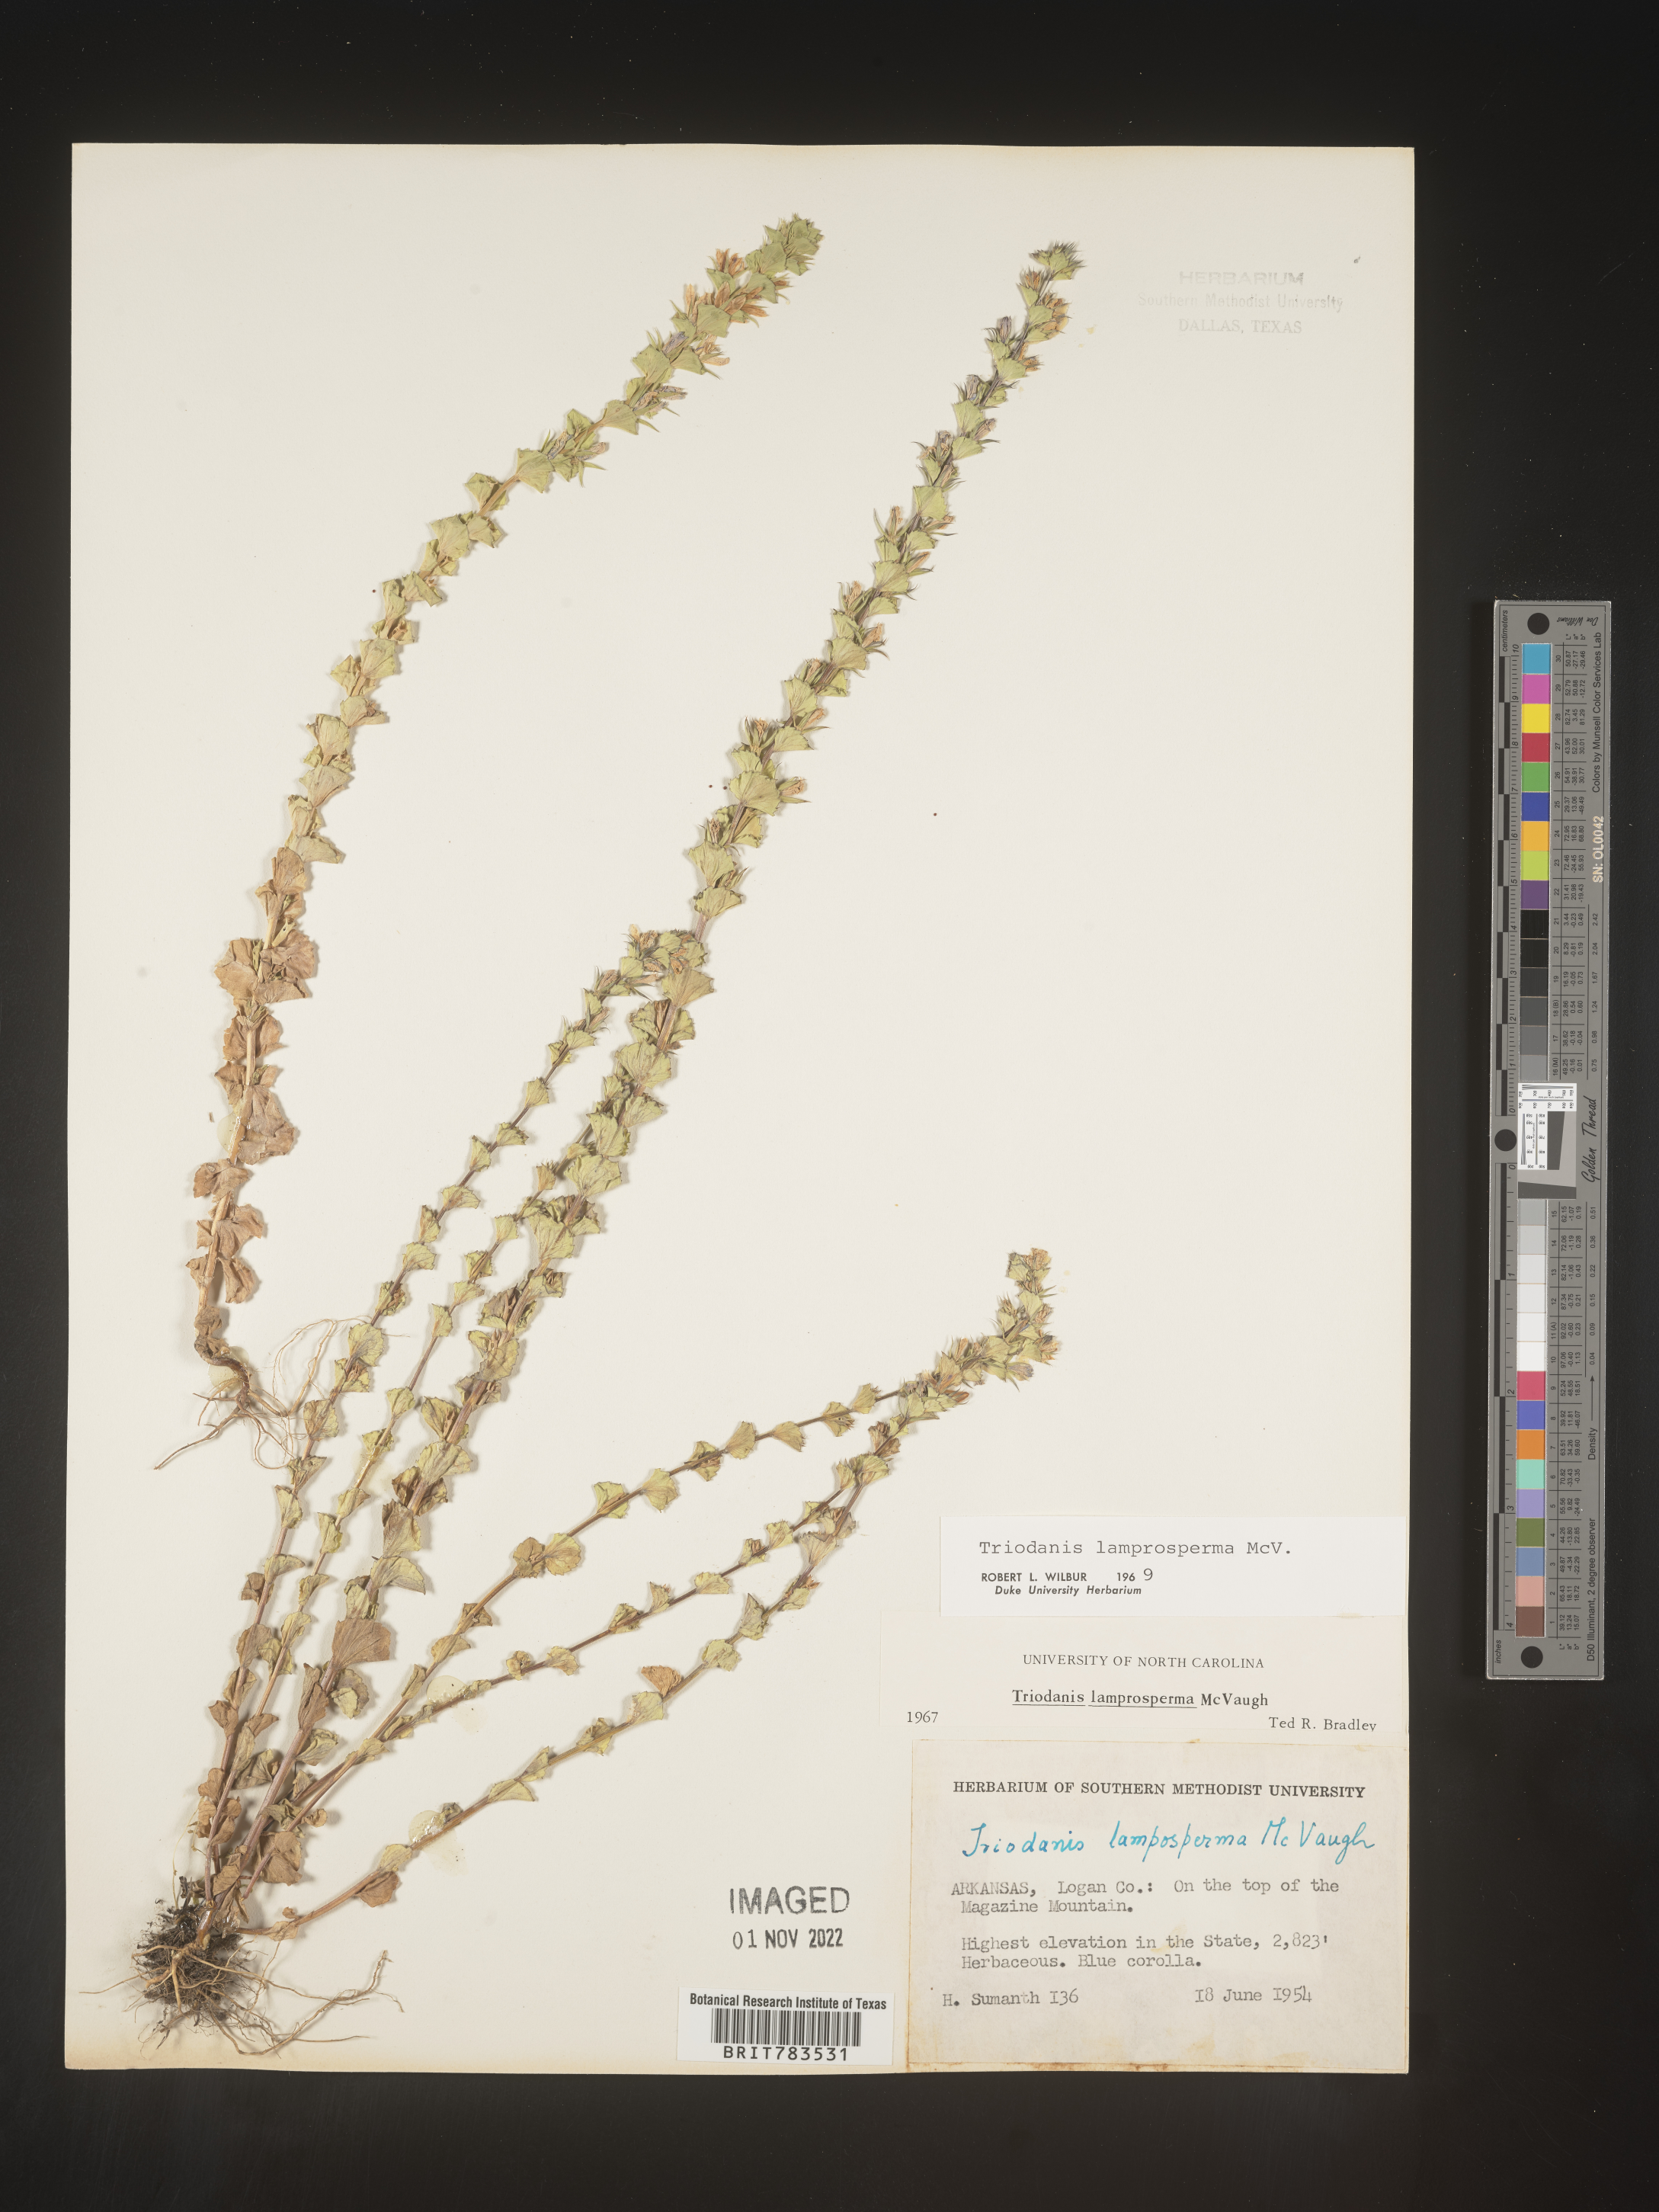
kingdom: Plantae
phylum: Tracheophyta
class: Magnoliopsida
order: Asterales
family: Campanulaceae
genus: Triodanis
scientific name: Triodanis lamprosperma
